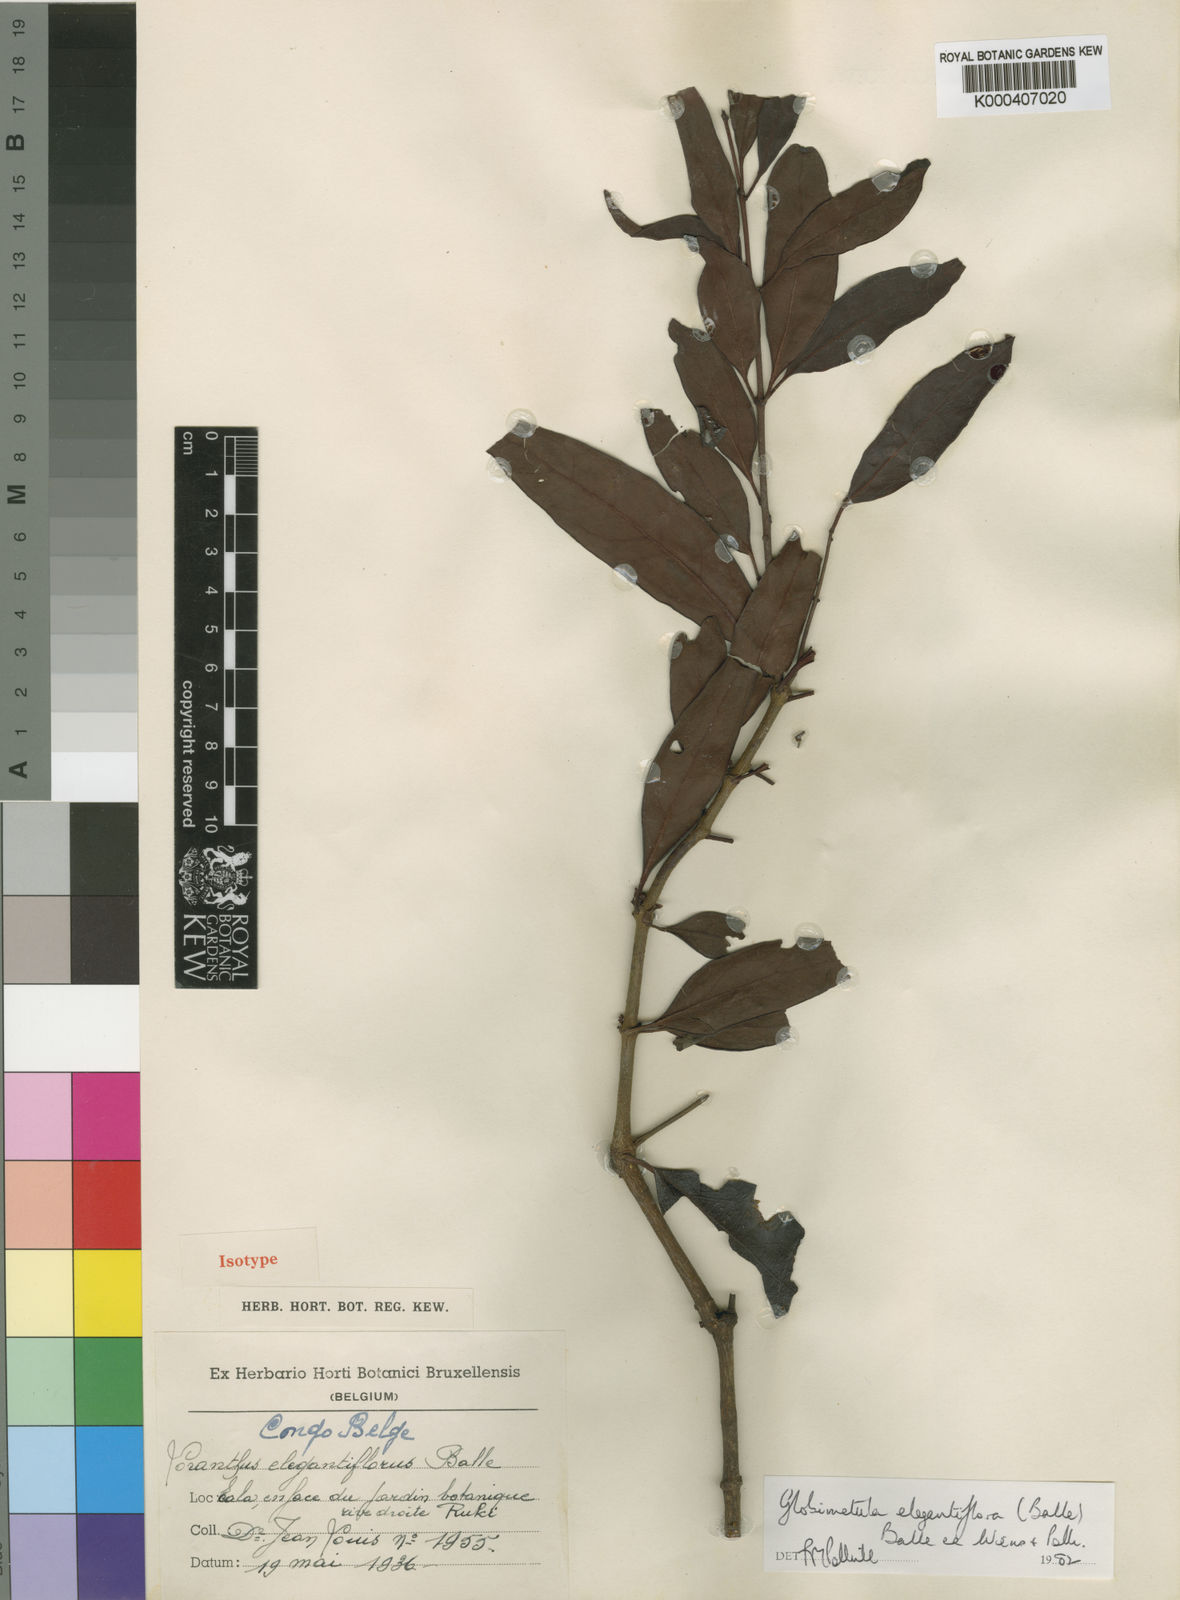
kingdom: Plantae
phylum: Tracheophyta
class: Magnoliopsida
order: Santalales
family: Loranthaceae
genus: Globimetula
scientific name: Globimetula elegantiflora
